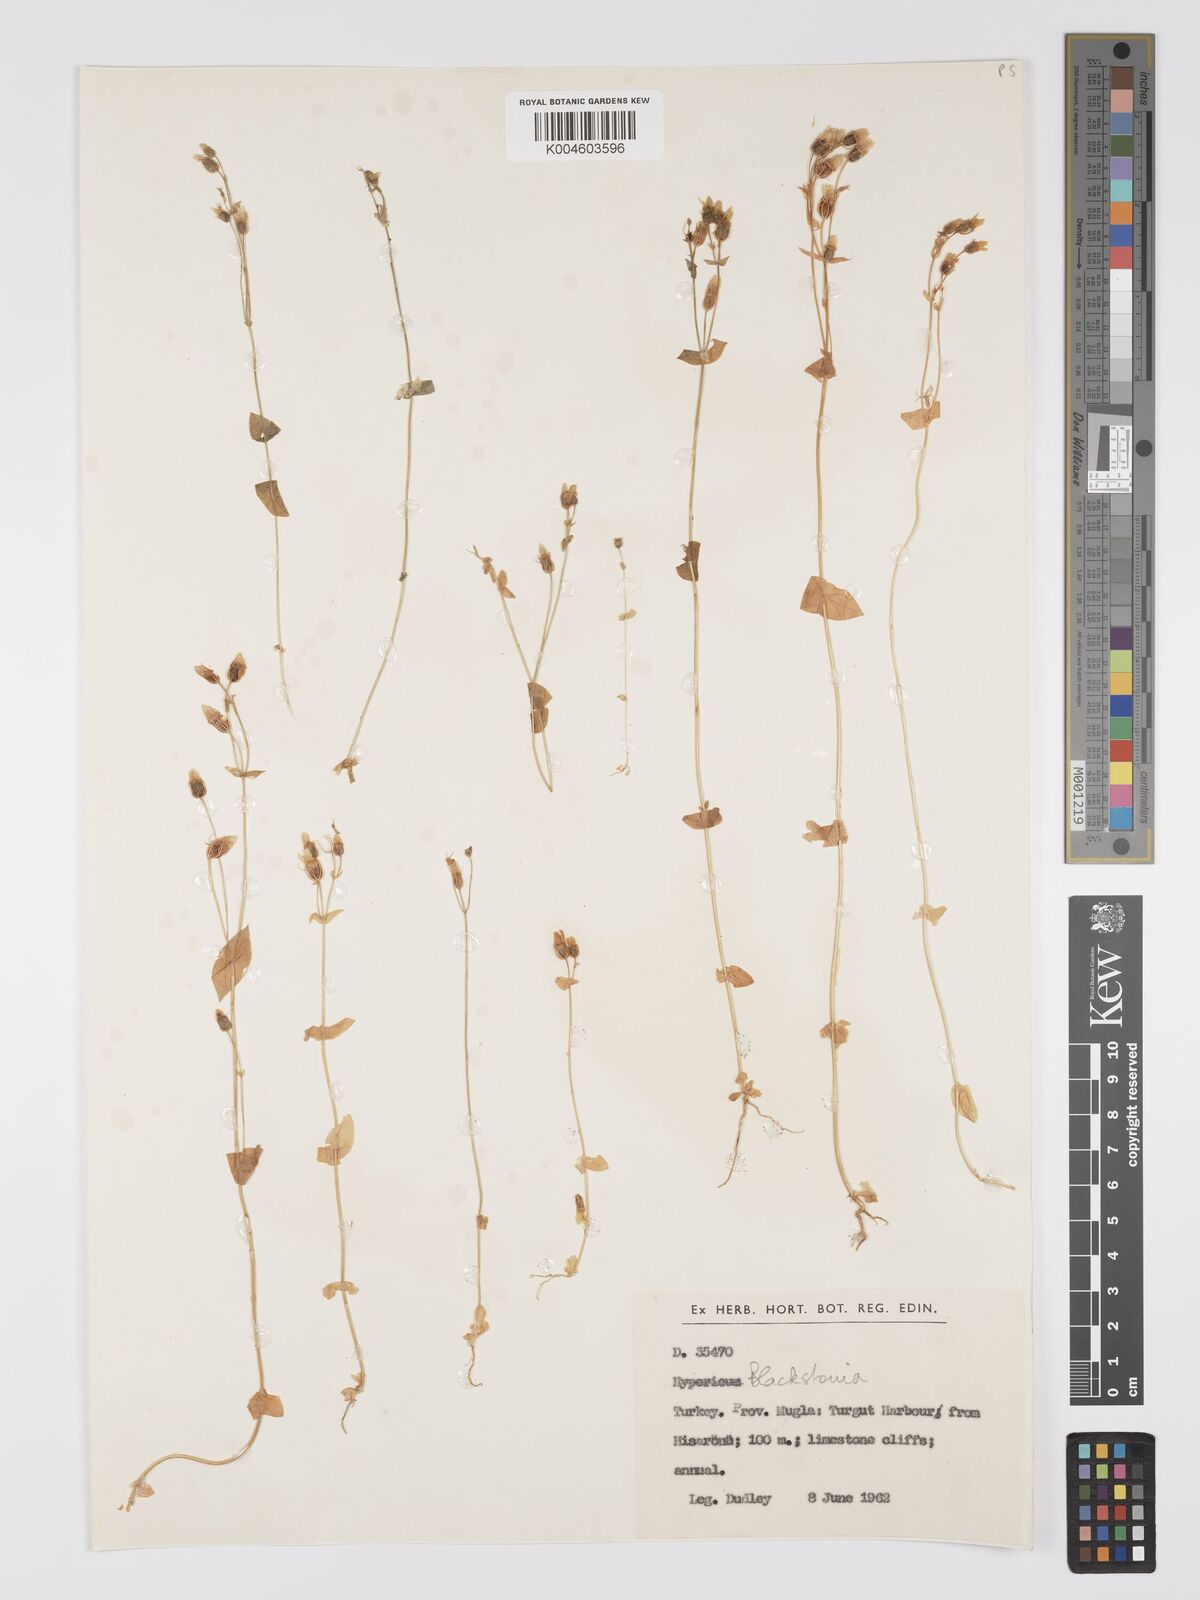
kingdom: Plantae
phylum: Tracheophyta
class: Magnoliopsida
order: Gentianales
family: Gentianaceae
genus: Blackstonia
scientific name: Blackstonia perfoliata
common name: Yellow-wort
